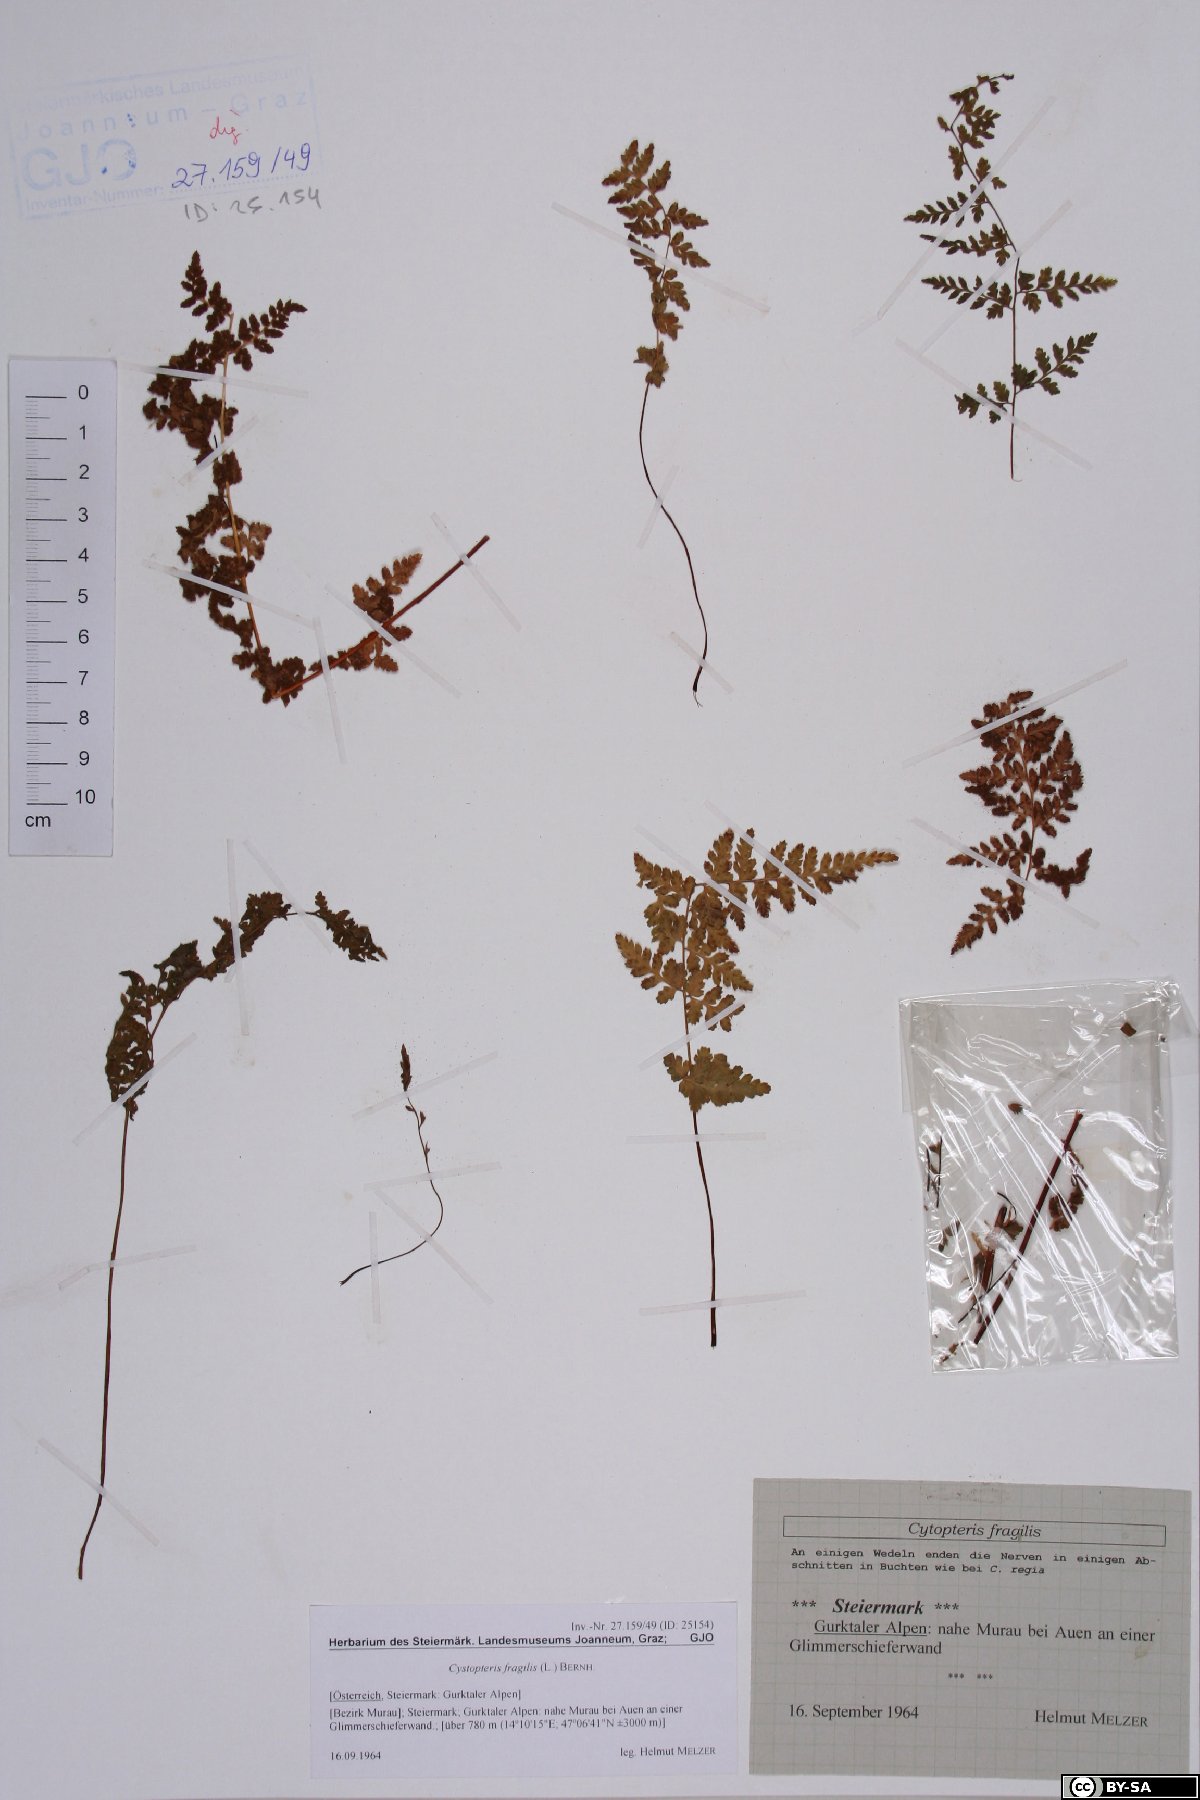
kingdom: Plantae
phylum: Tracheophyta
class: Polypodiopsida
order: Polypodiales
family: Cystopteridaceae
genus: Cystopteris
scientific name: Cystopteris fragilis
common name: Brittle bladder fern
